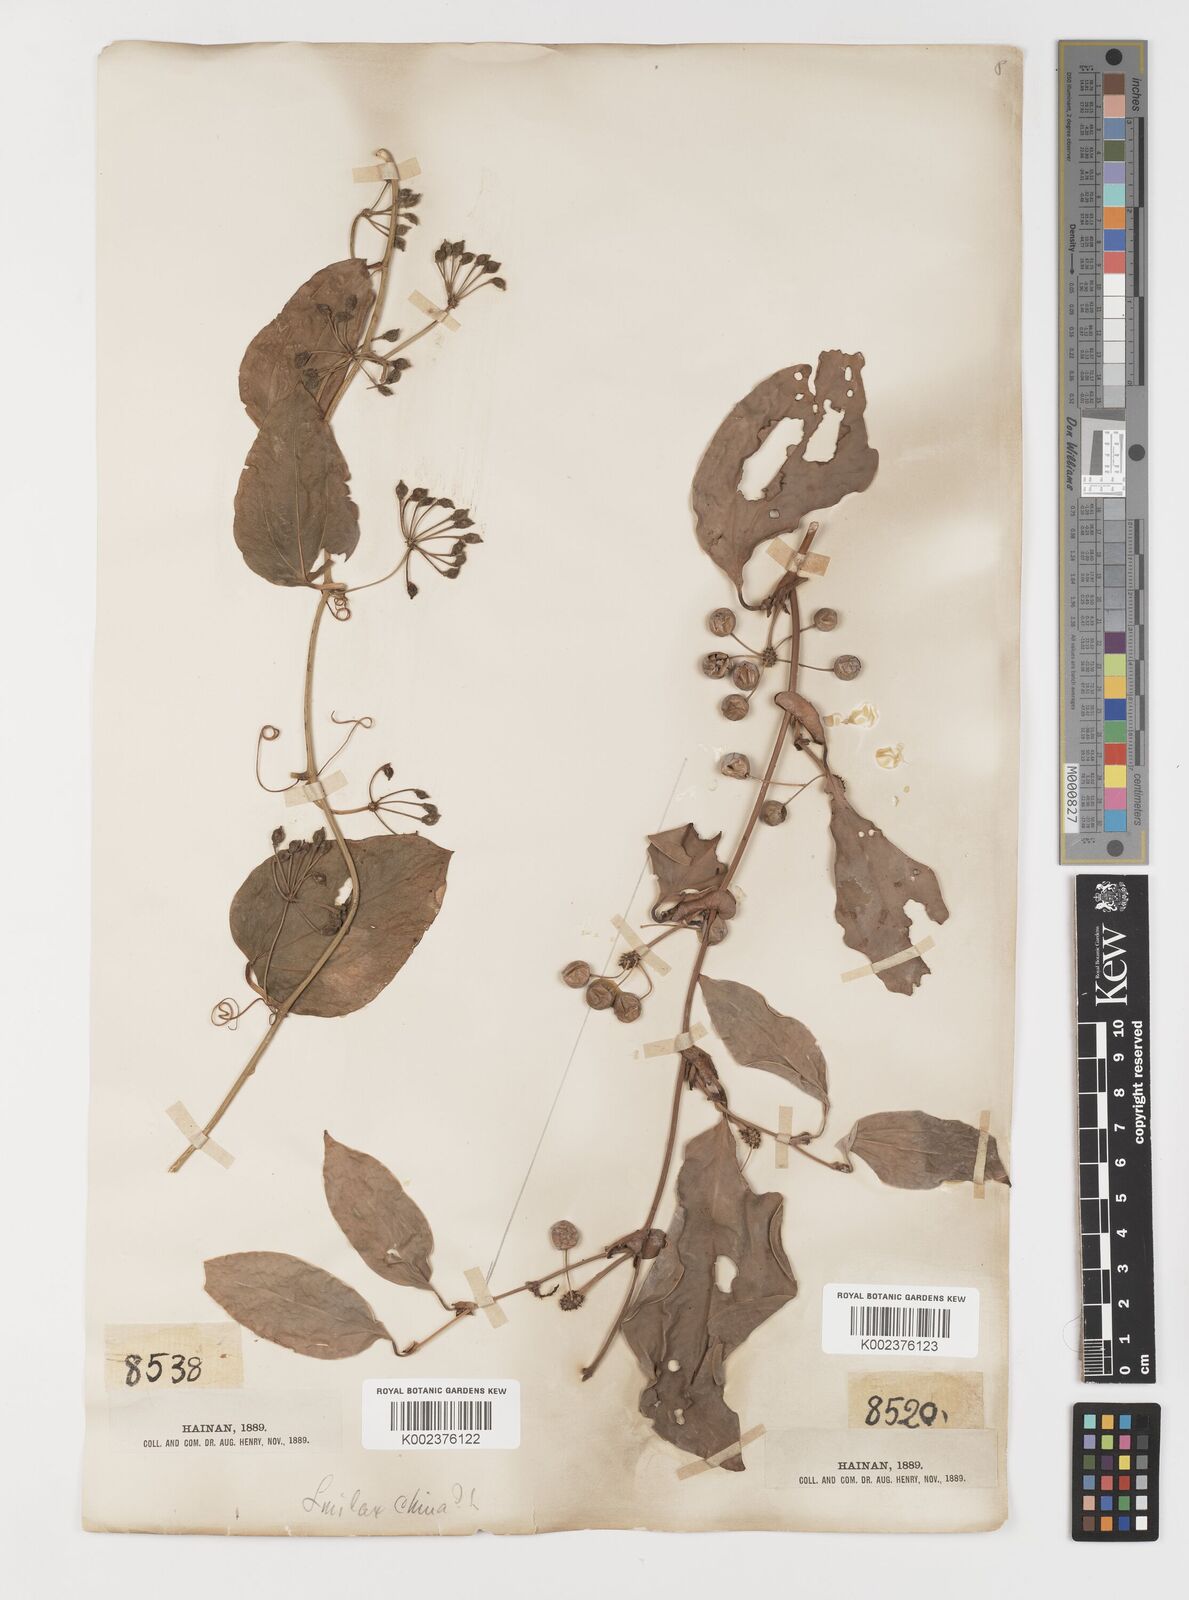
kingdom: Plantae
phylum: Tracheophyta
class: Liliopsida
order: Liliales
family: Smilacaceae
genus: Smilax
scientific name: Smilax ovalifolia
